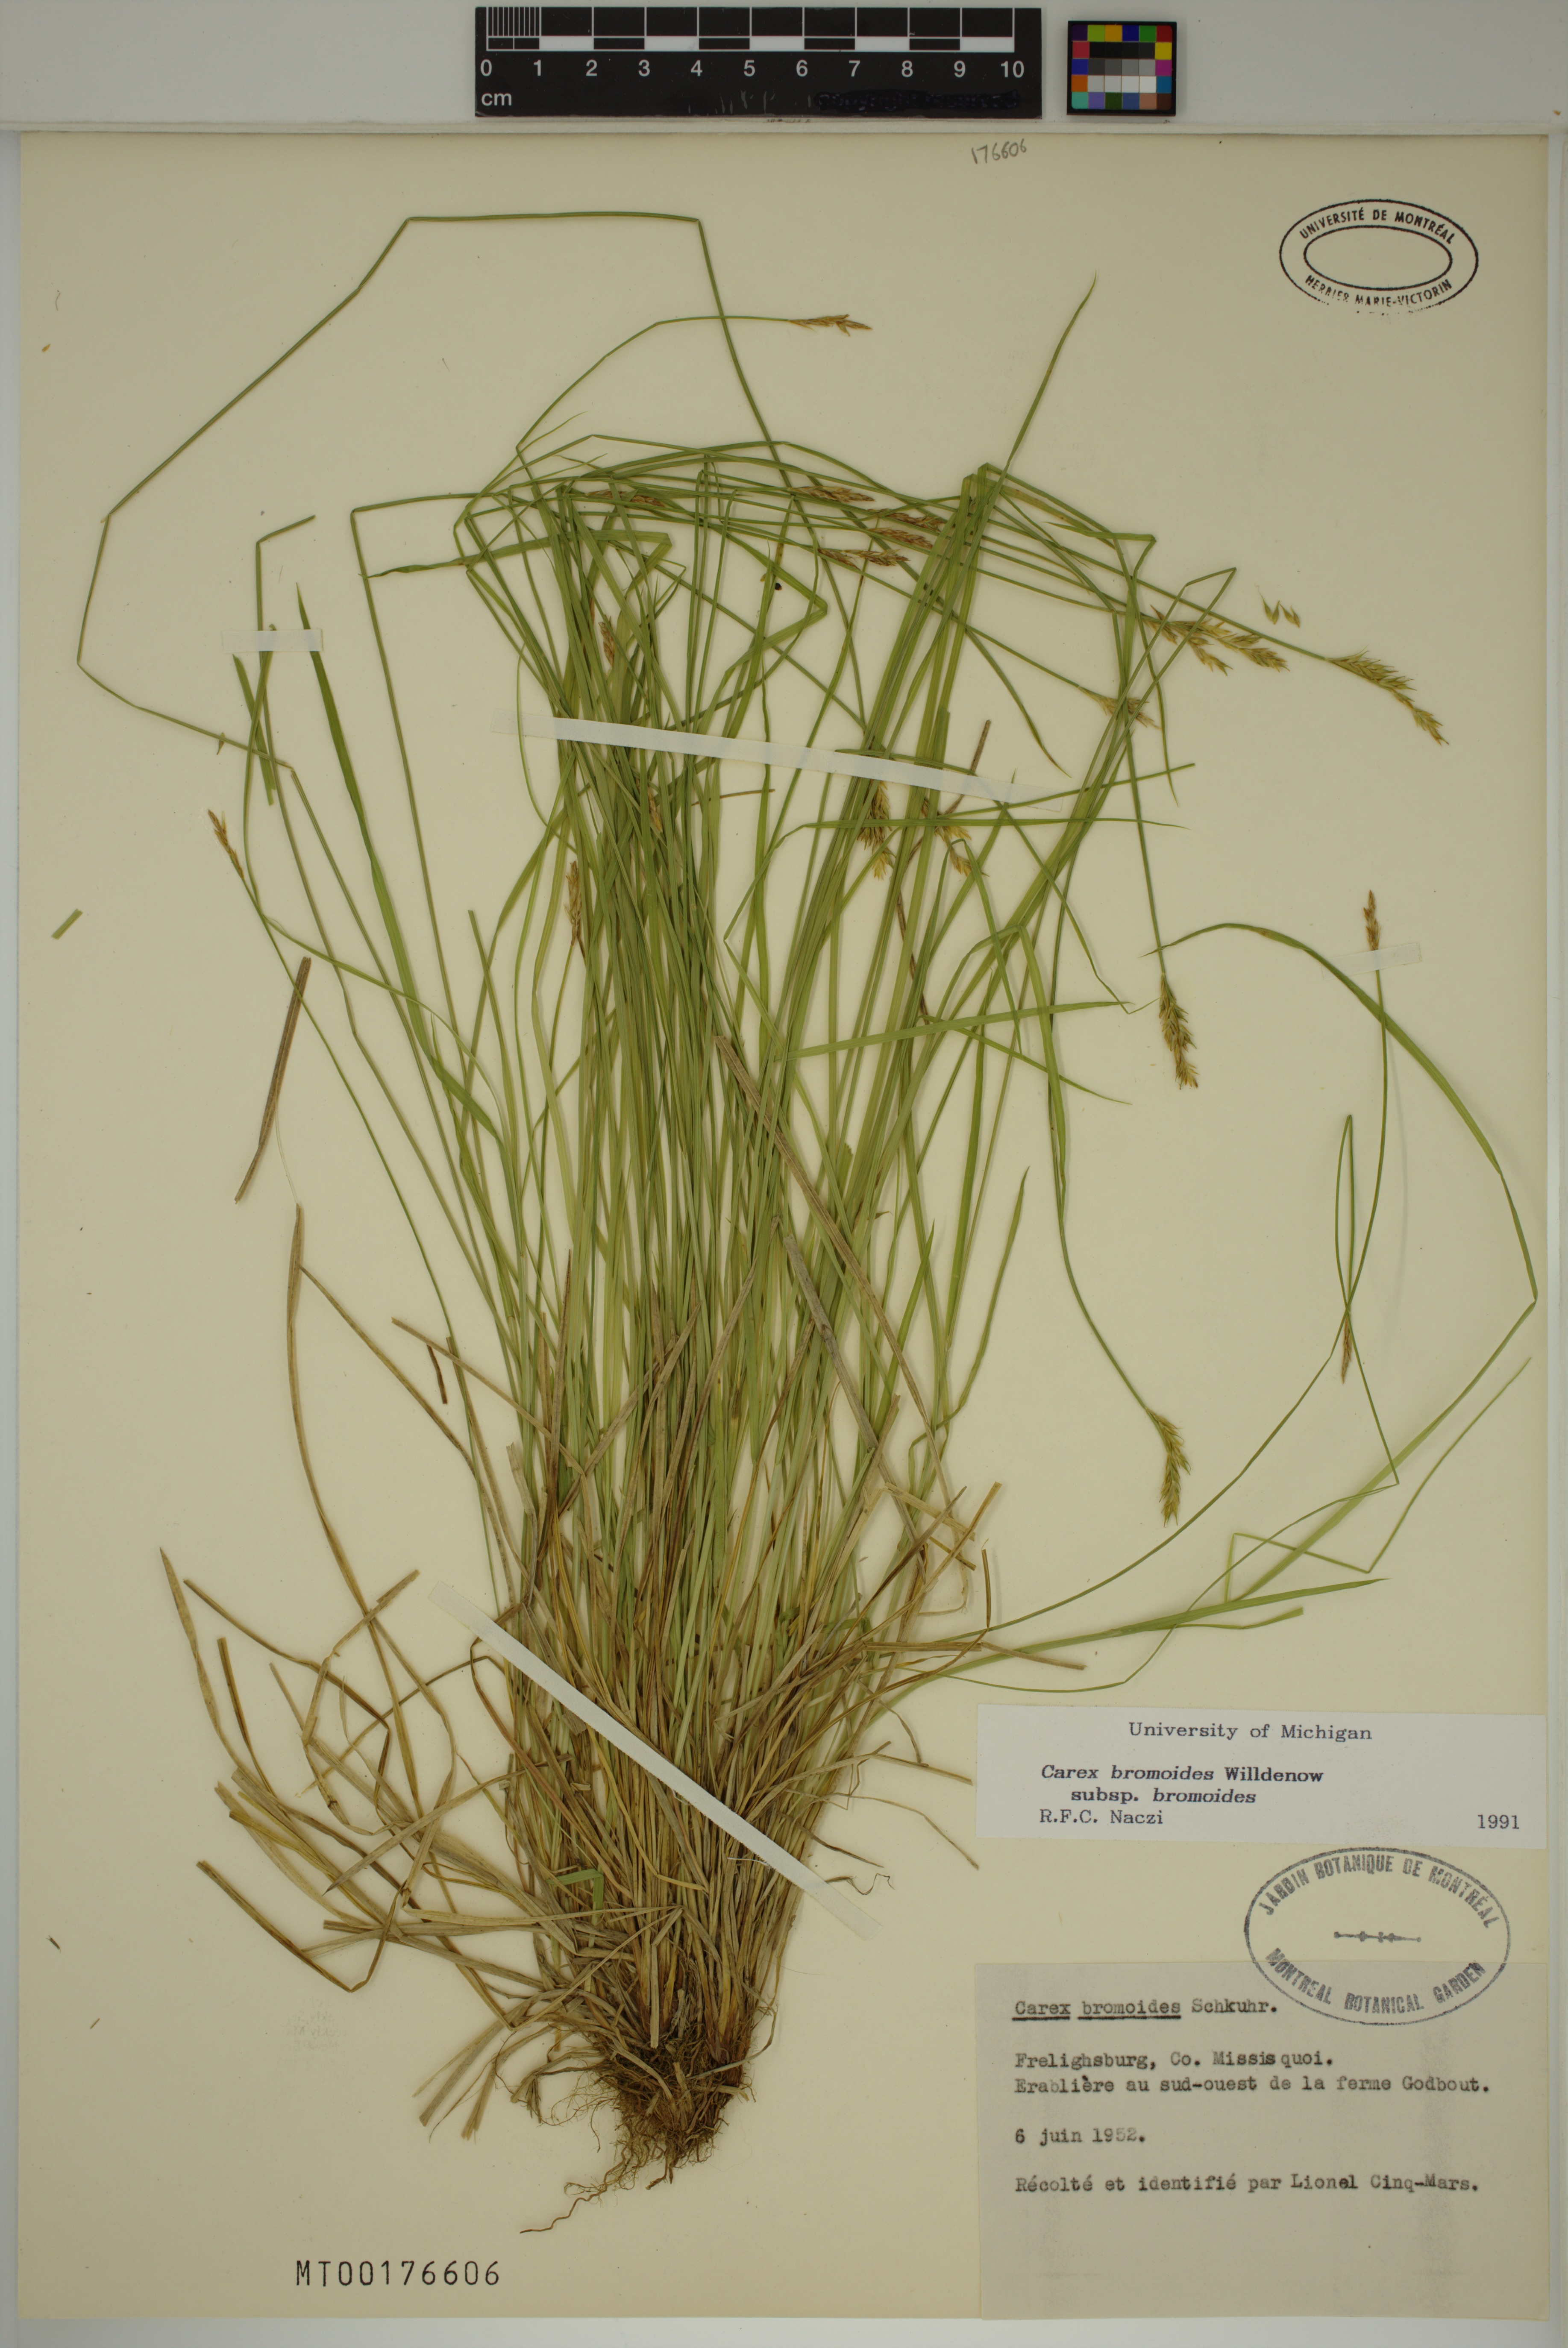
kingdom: Plantae
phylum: Tracheophyta
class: Liliopsida
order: Poales
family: Cyperaceae
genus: Carex
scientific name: Carex bromoides
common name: Brome hummock sedge
